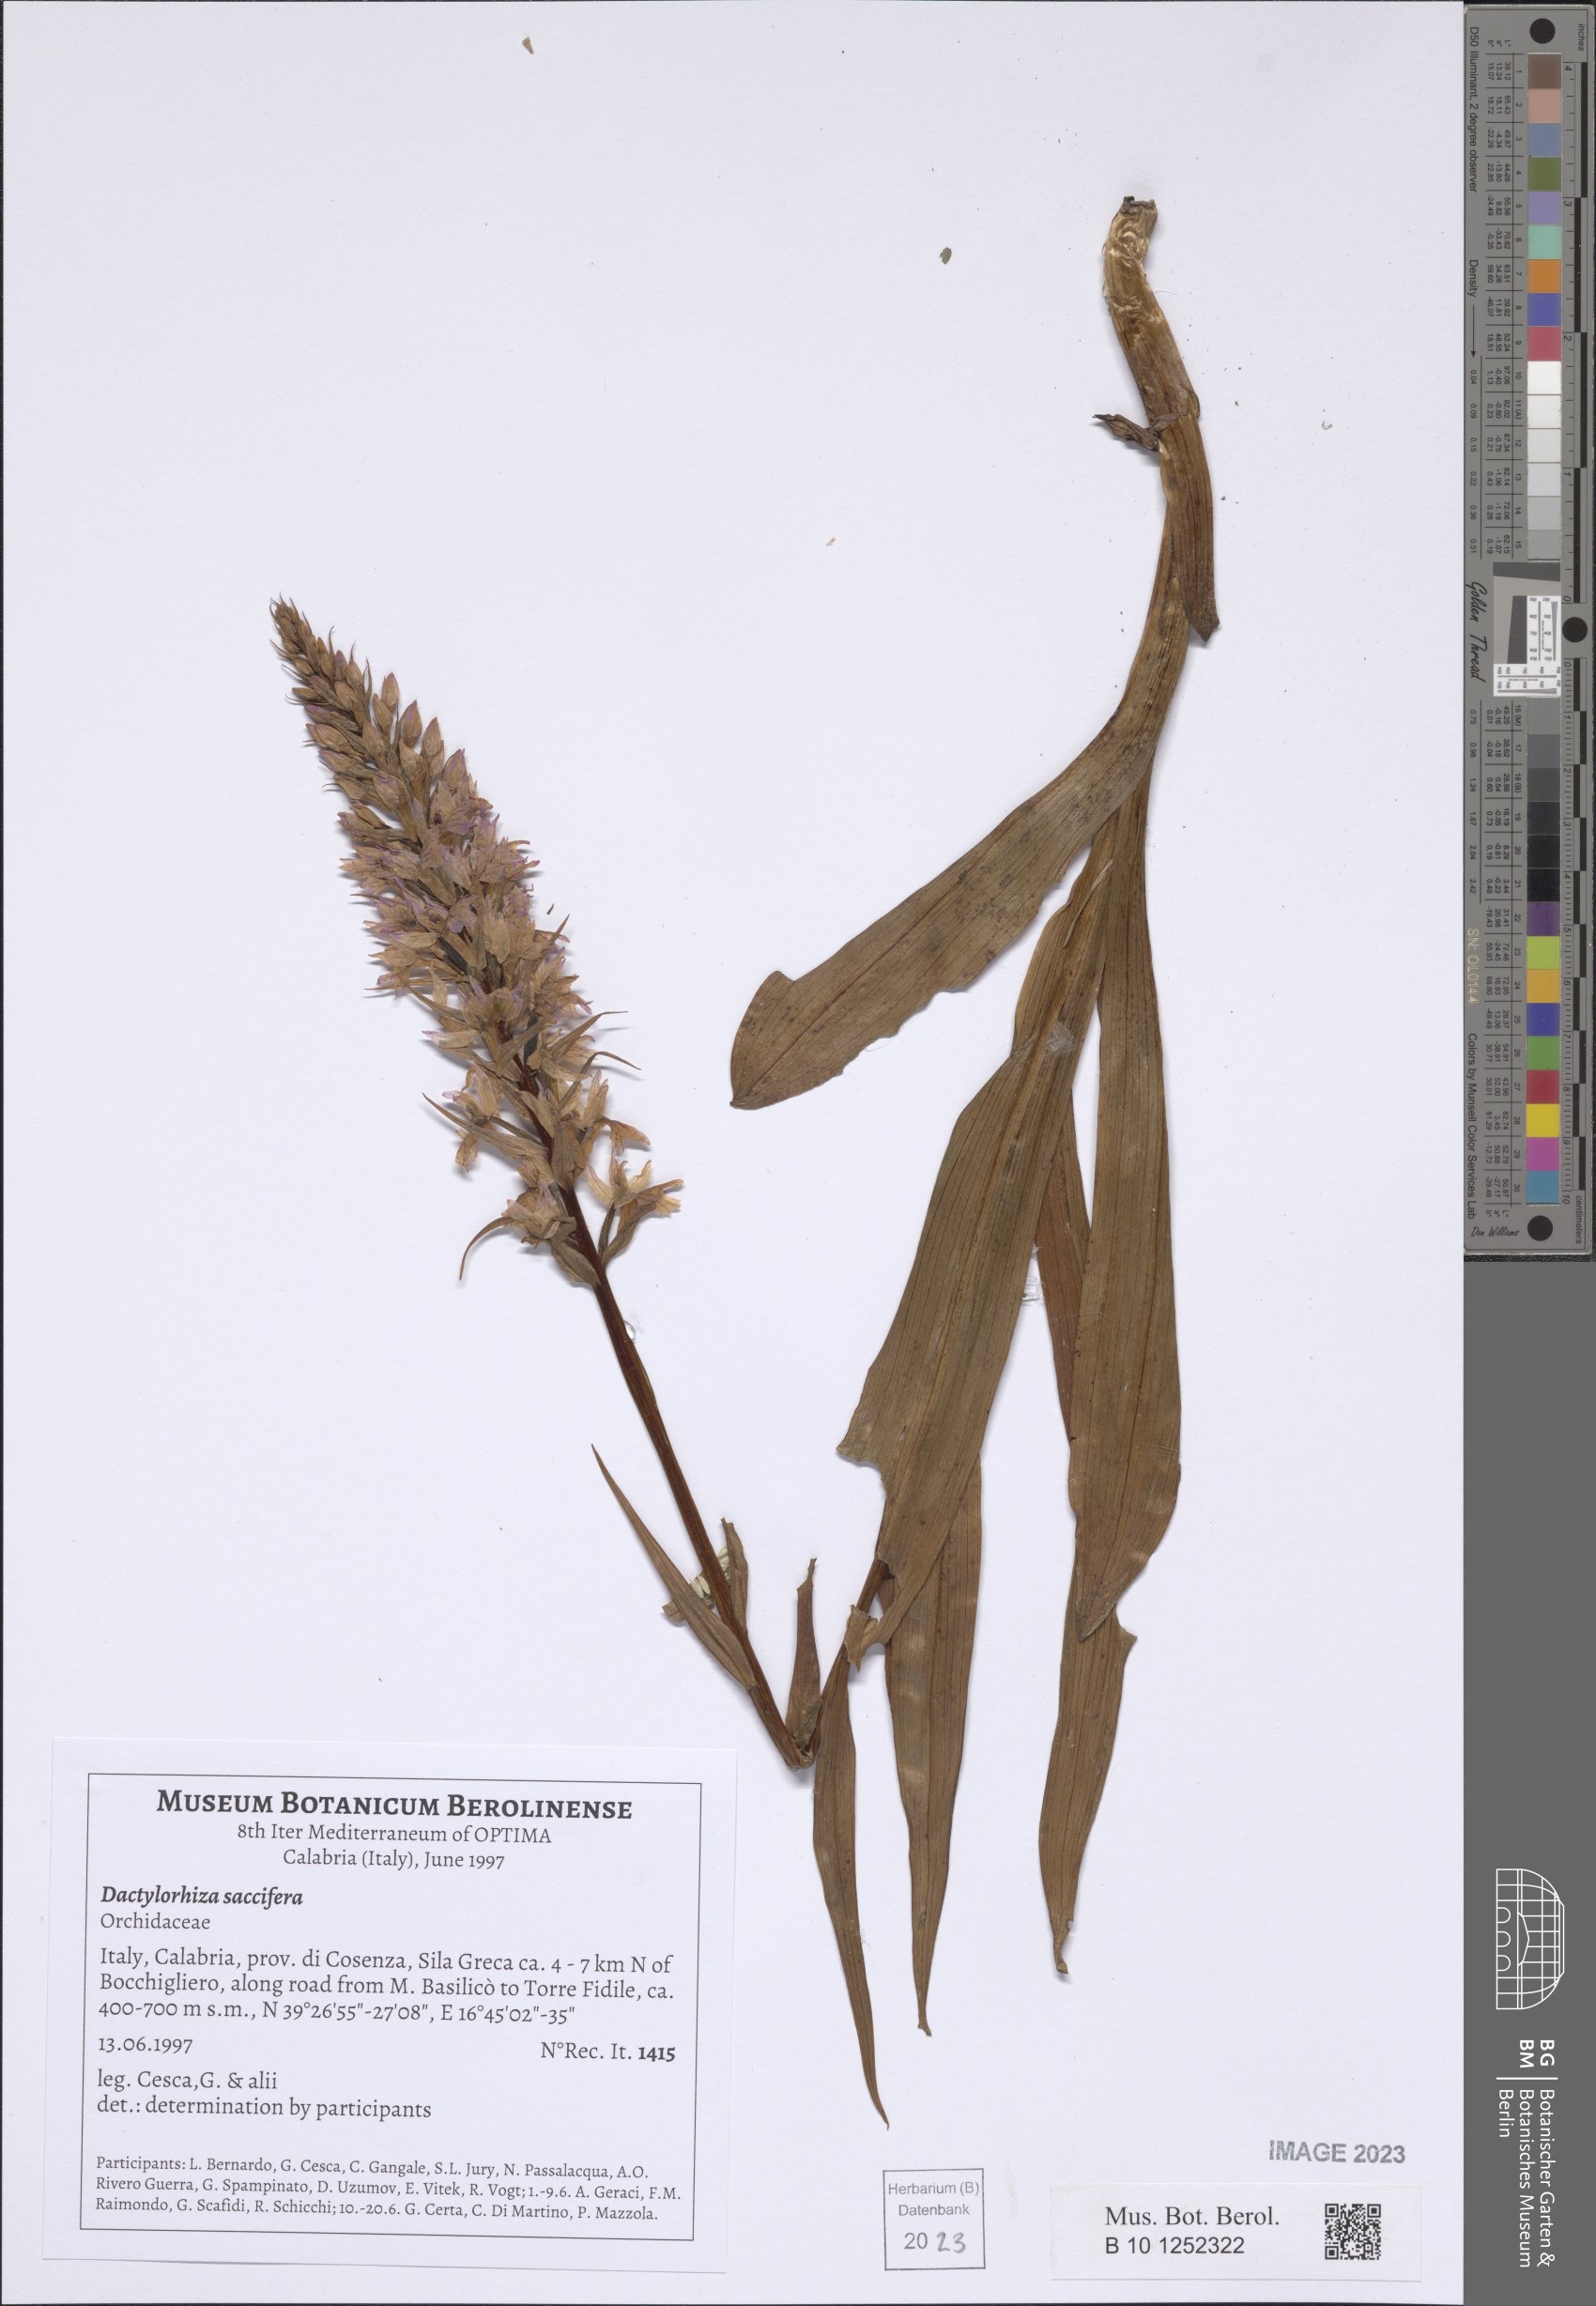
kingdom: Plantae
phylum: Tracheophyta
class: Liliopsida
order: Asparagales
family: Orchidaceae
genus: Dactylorhiza
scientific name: Dactylorhiza maculata
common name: Heath spotted-orchid
